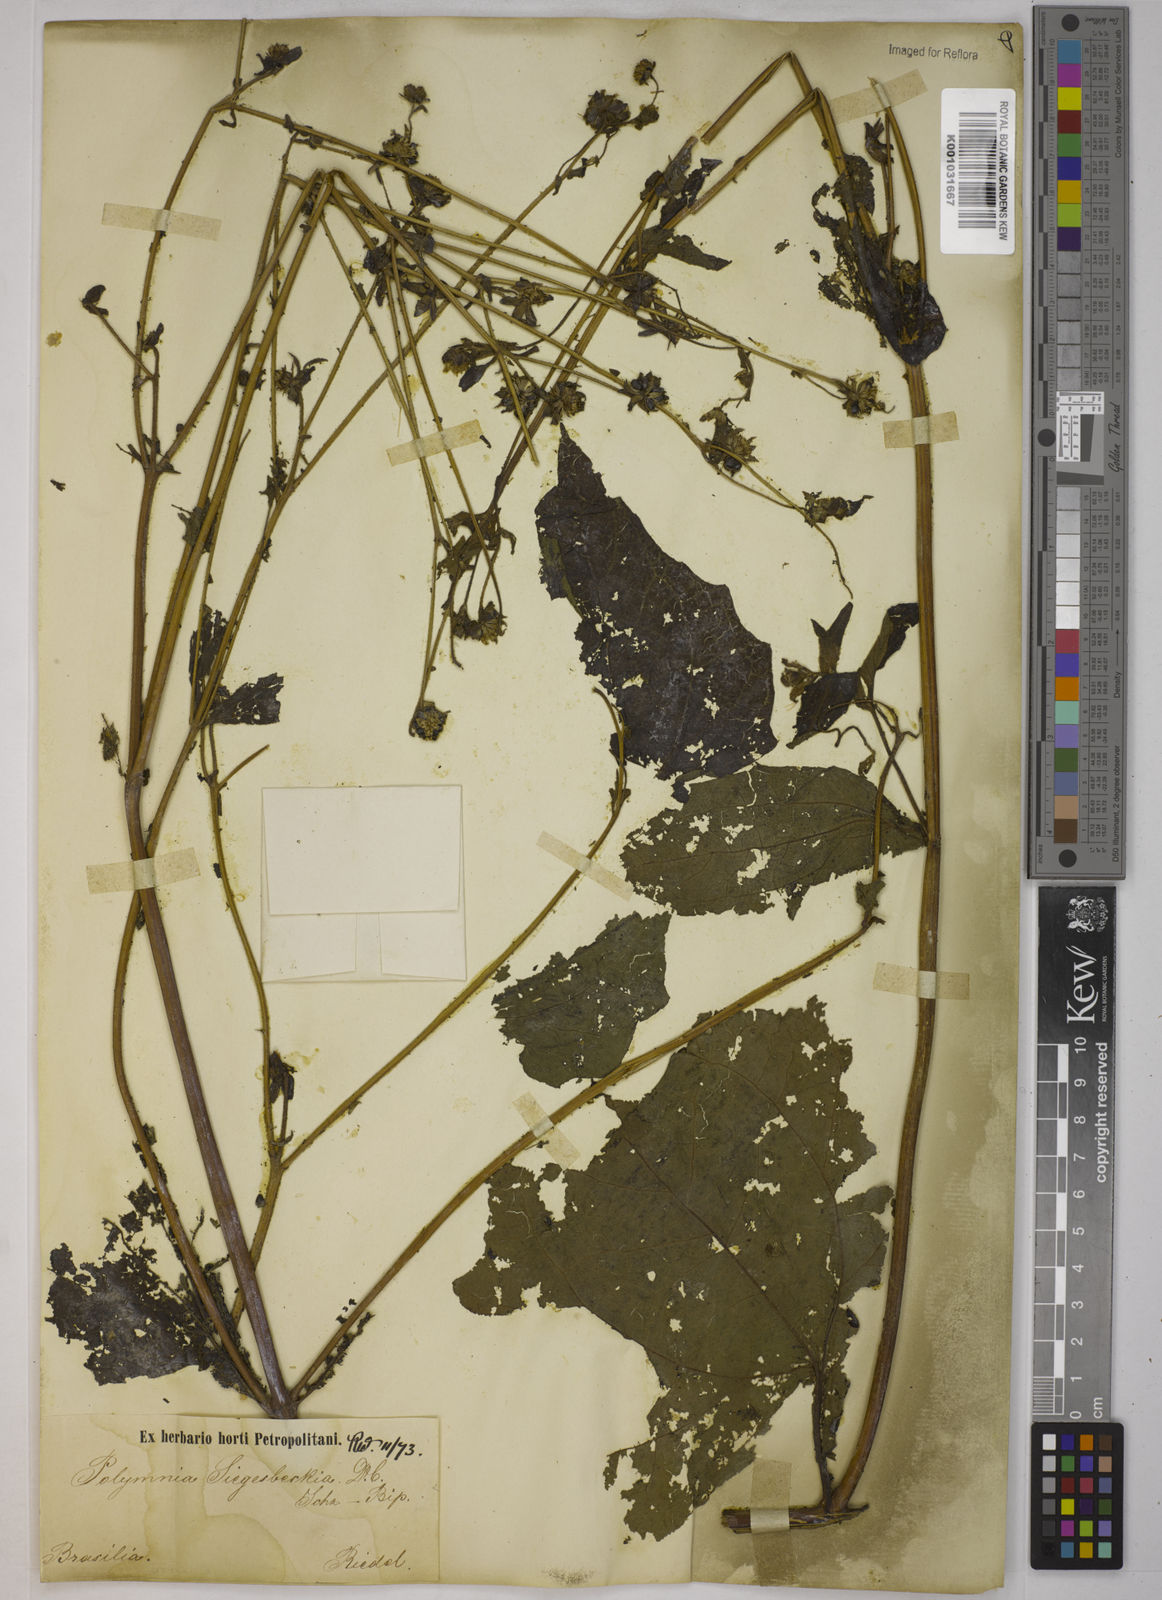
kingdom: Plantae
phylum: Tracheophyta
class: Magnoliopsida
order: Asterales
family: Asteraceae
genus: Smallanthus
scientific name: Smallanthus siegesbeckius
